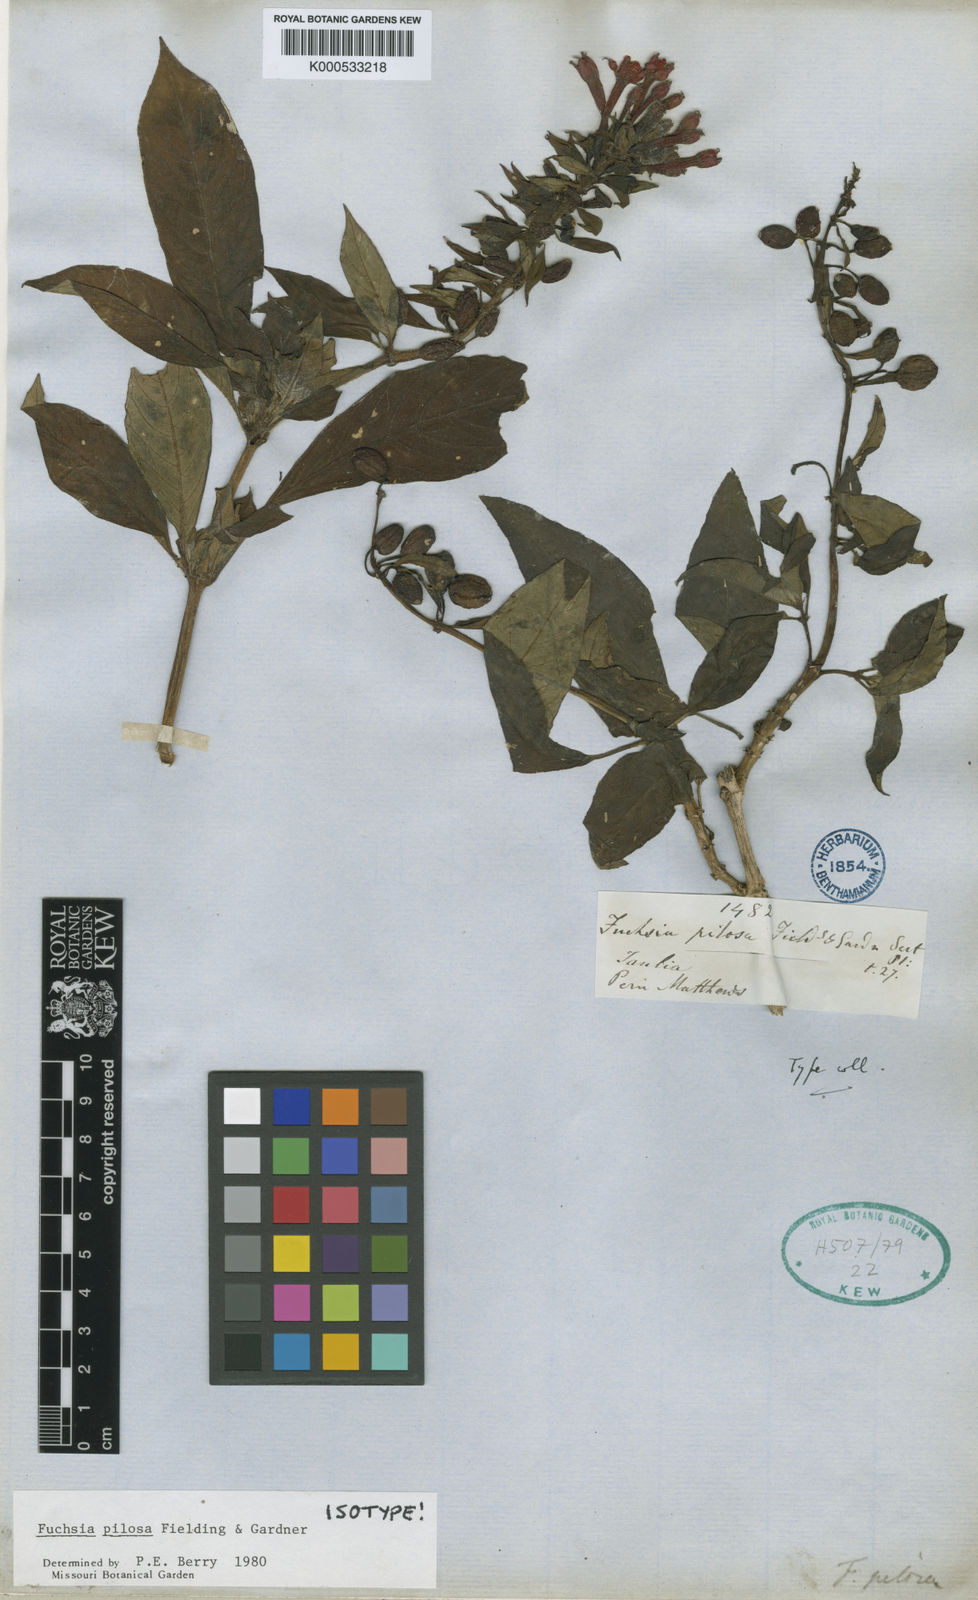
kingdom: Plantae
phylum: Tracheophyta
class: Magnoliopsida
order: Myrtales
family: Onagraceae
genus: Fuchsia
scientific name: Fuchsia pilosa
